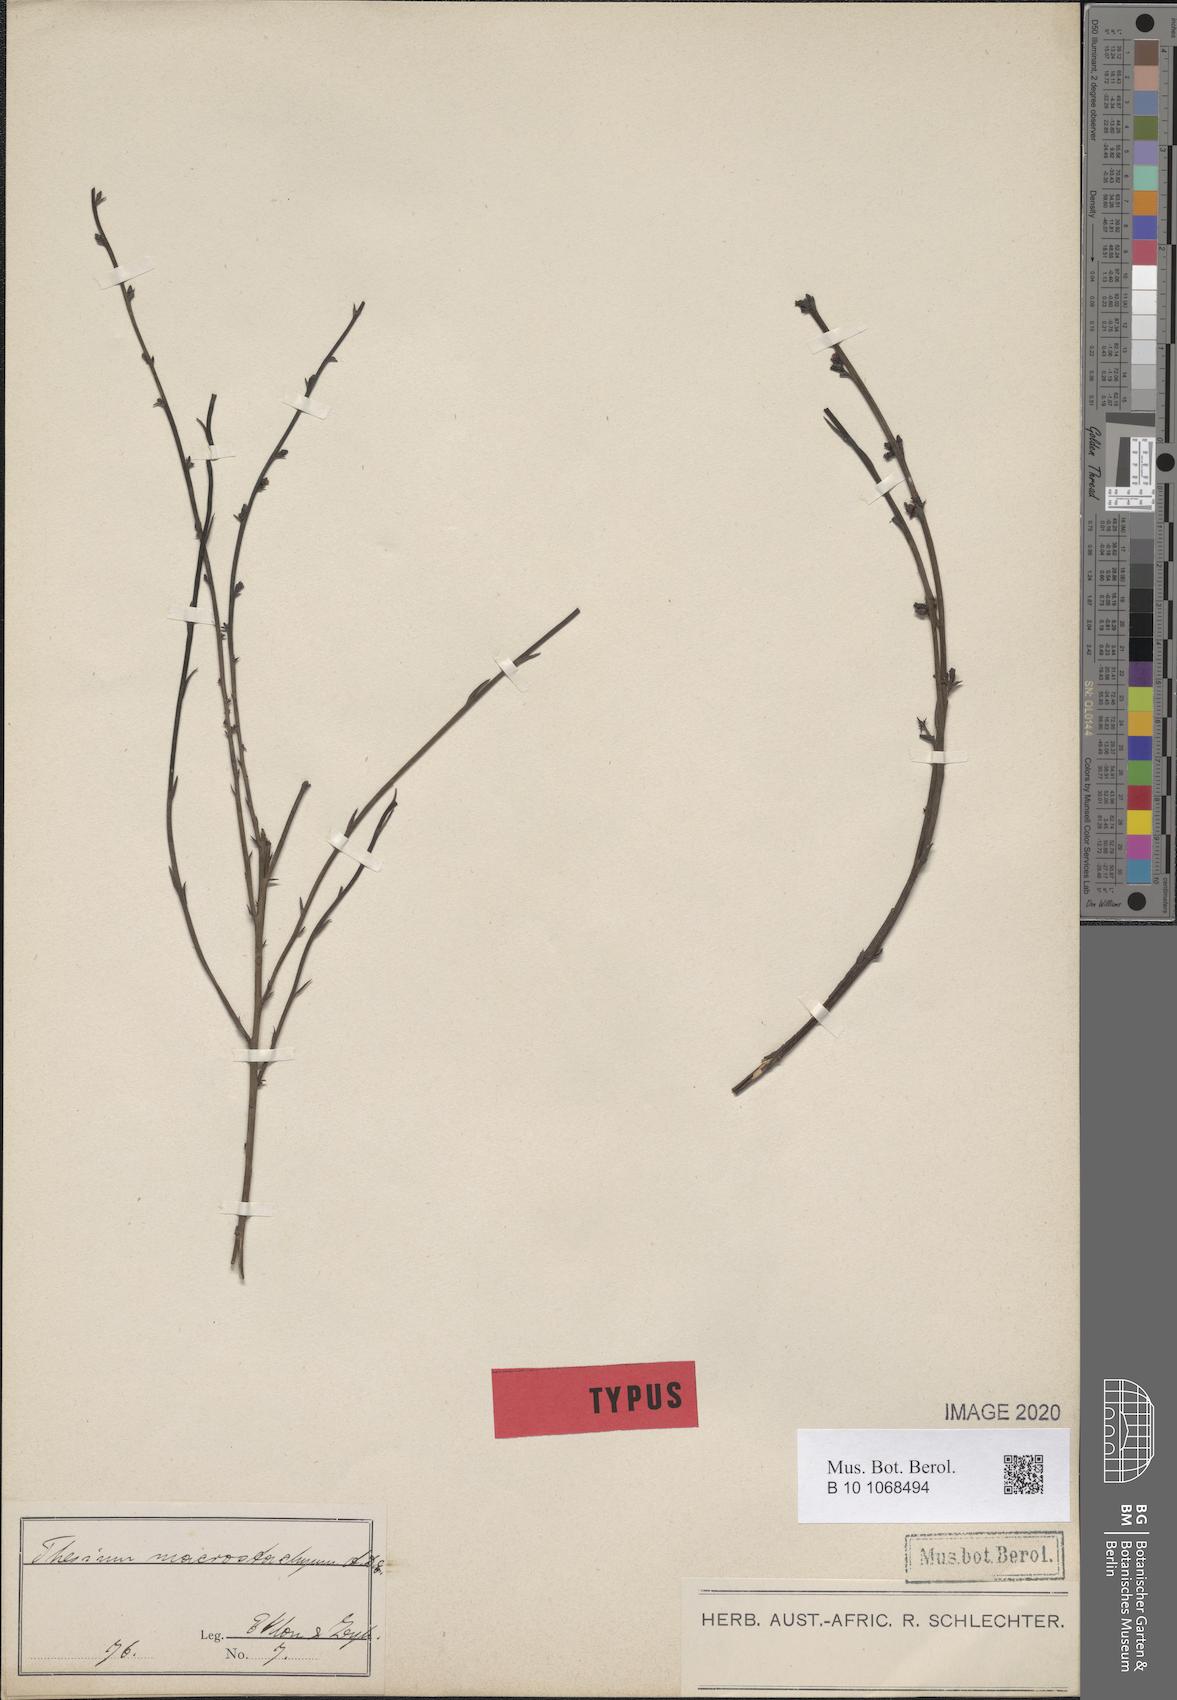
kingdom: Plantae
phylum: Tracheophyta
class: Magnoliopsida
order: Santalales
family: Thesiaceae
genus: Thesium
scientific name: Thesium macrostachyum
